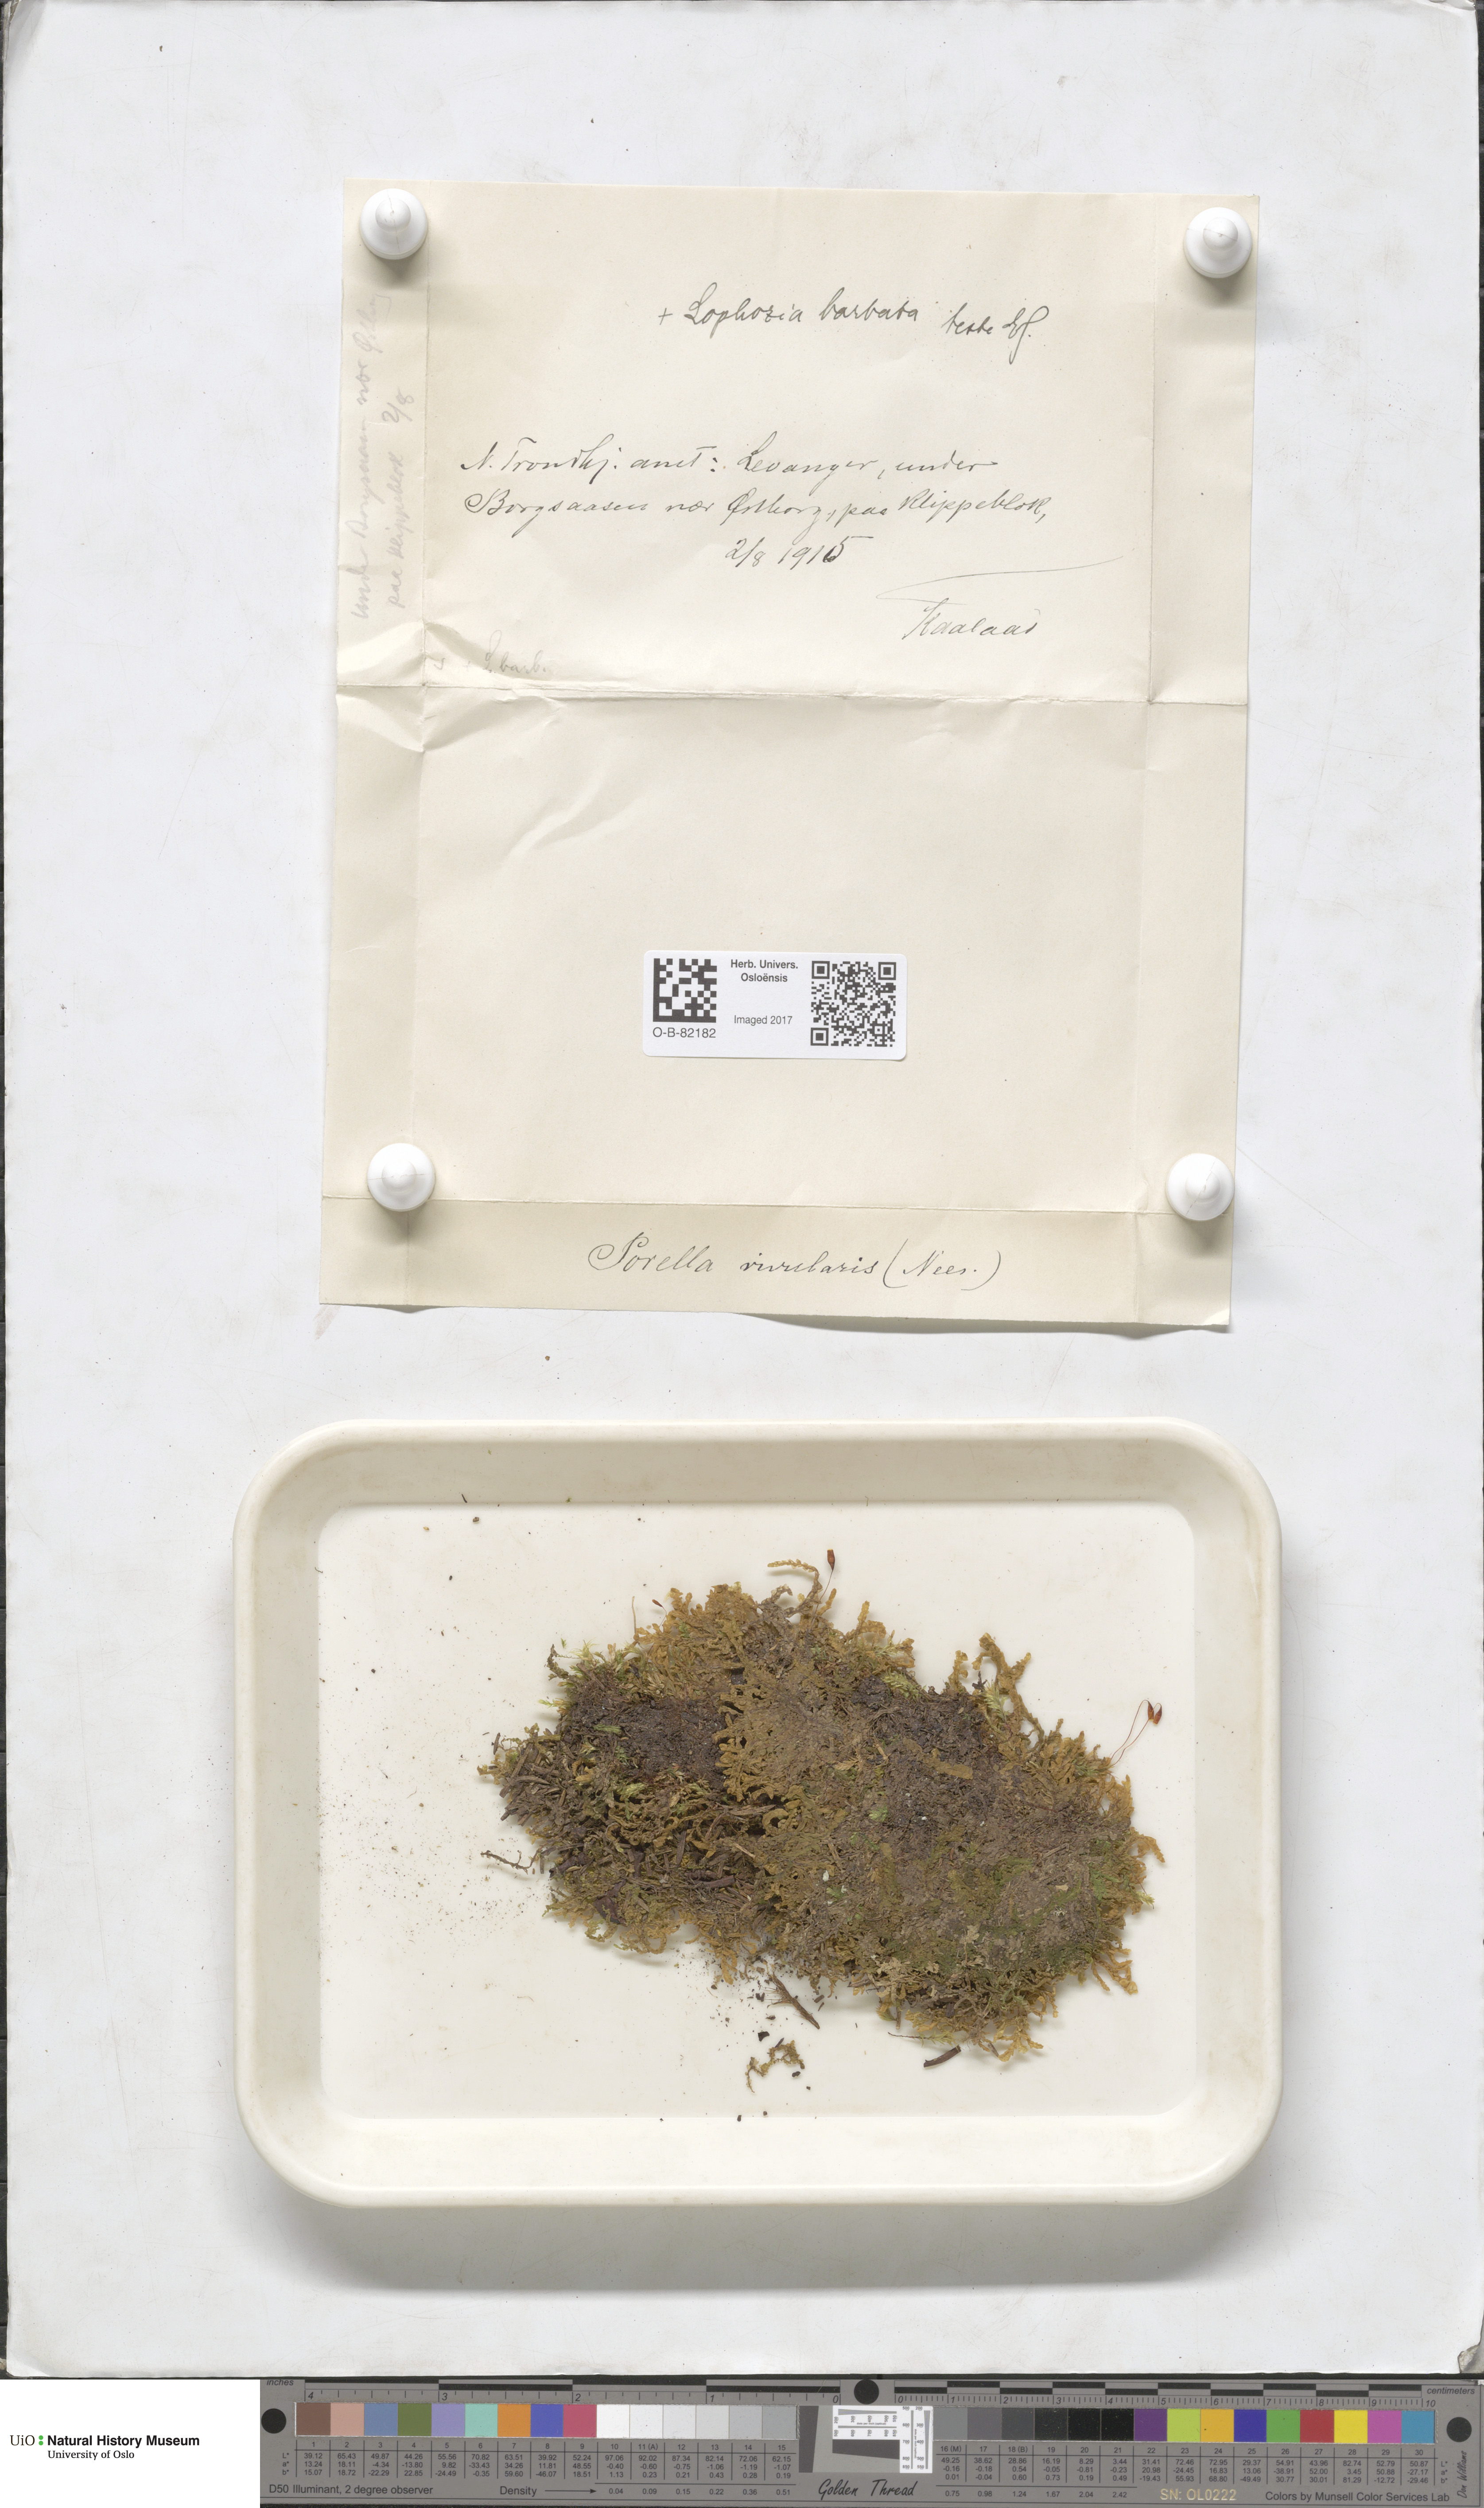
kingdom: Plantae
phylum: Marchantiophyta
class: Jungermanniopsida
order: Porellales
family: Porellaceae
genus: Porella
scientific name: Porella cordaeana
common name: Cliff scalewort
